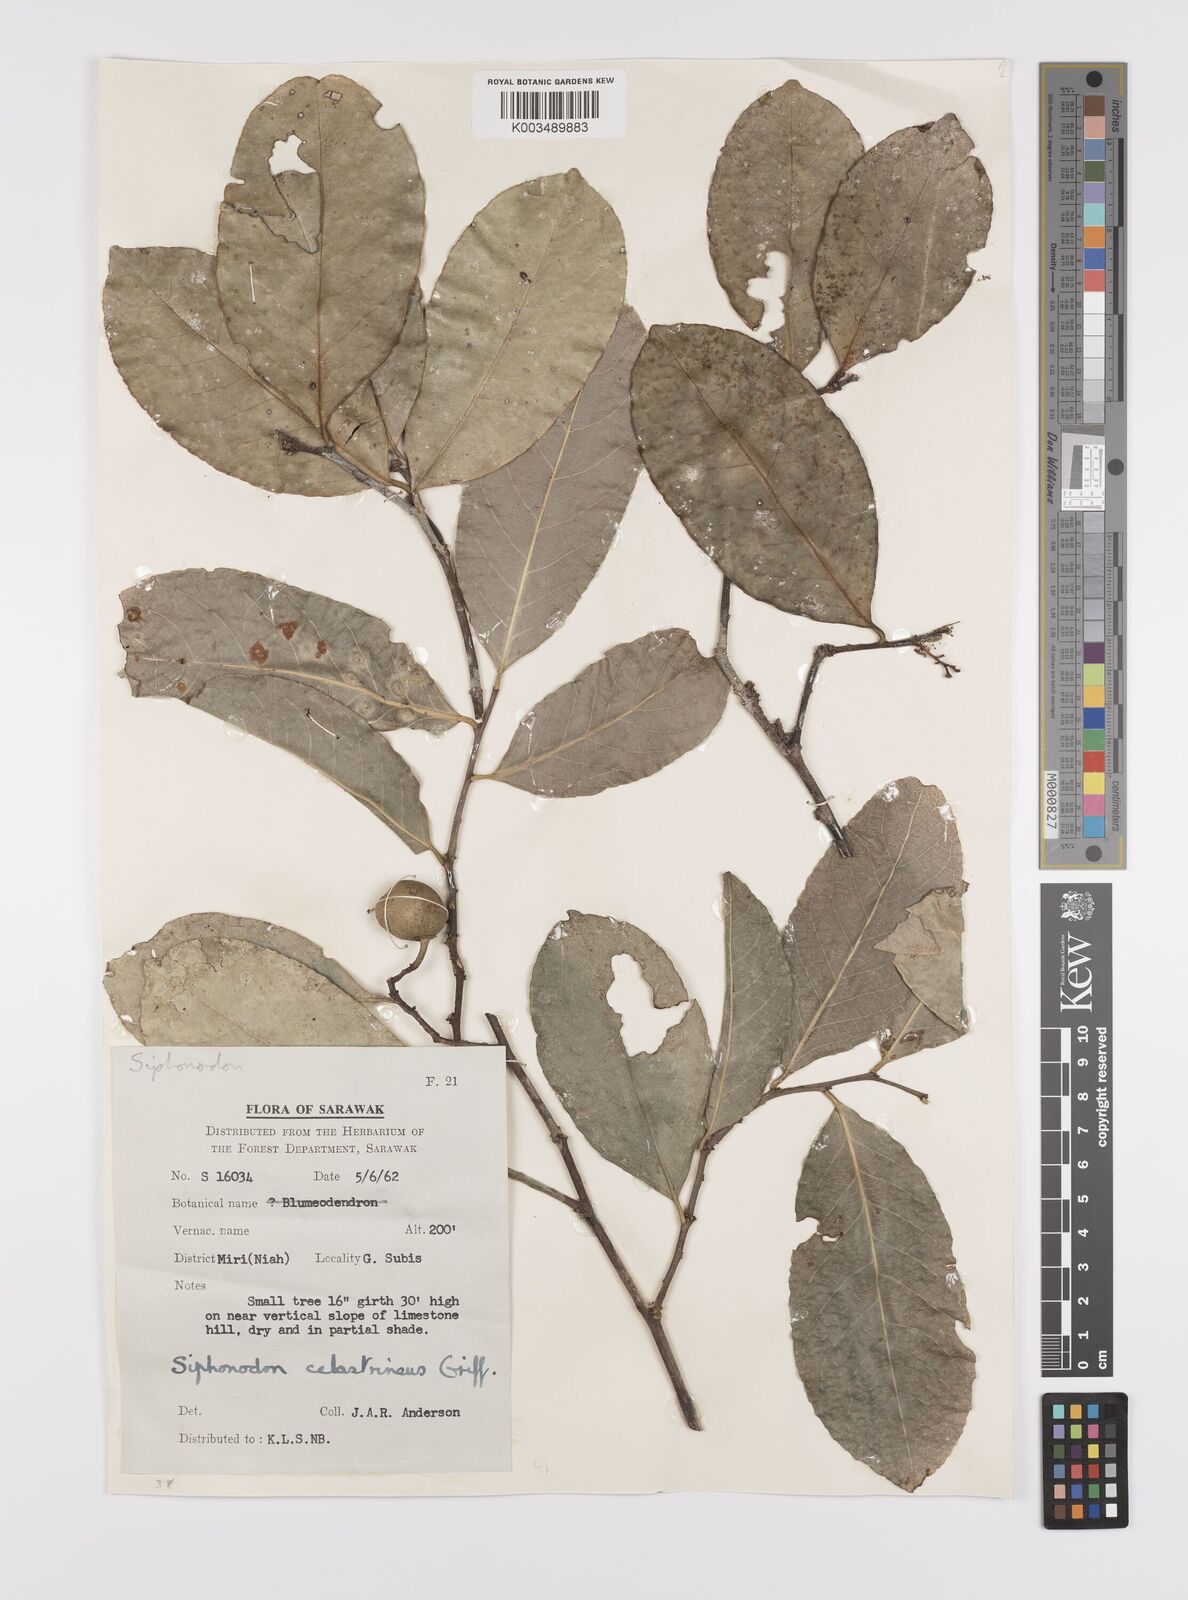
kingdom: Plantae
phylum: Tracheophyta
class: Magnoliopsida
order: Celastrales
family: Celastraceae
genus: Siphonodon
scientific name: Siphonodon celastrineus
